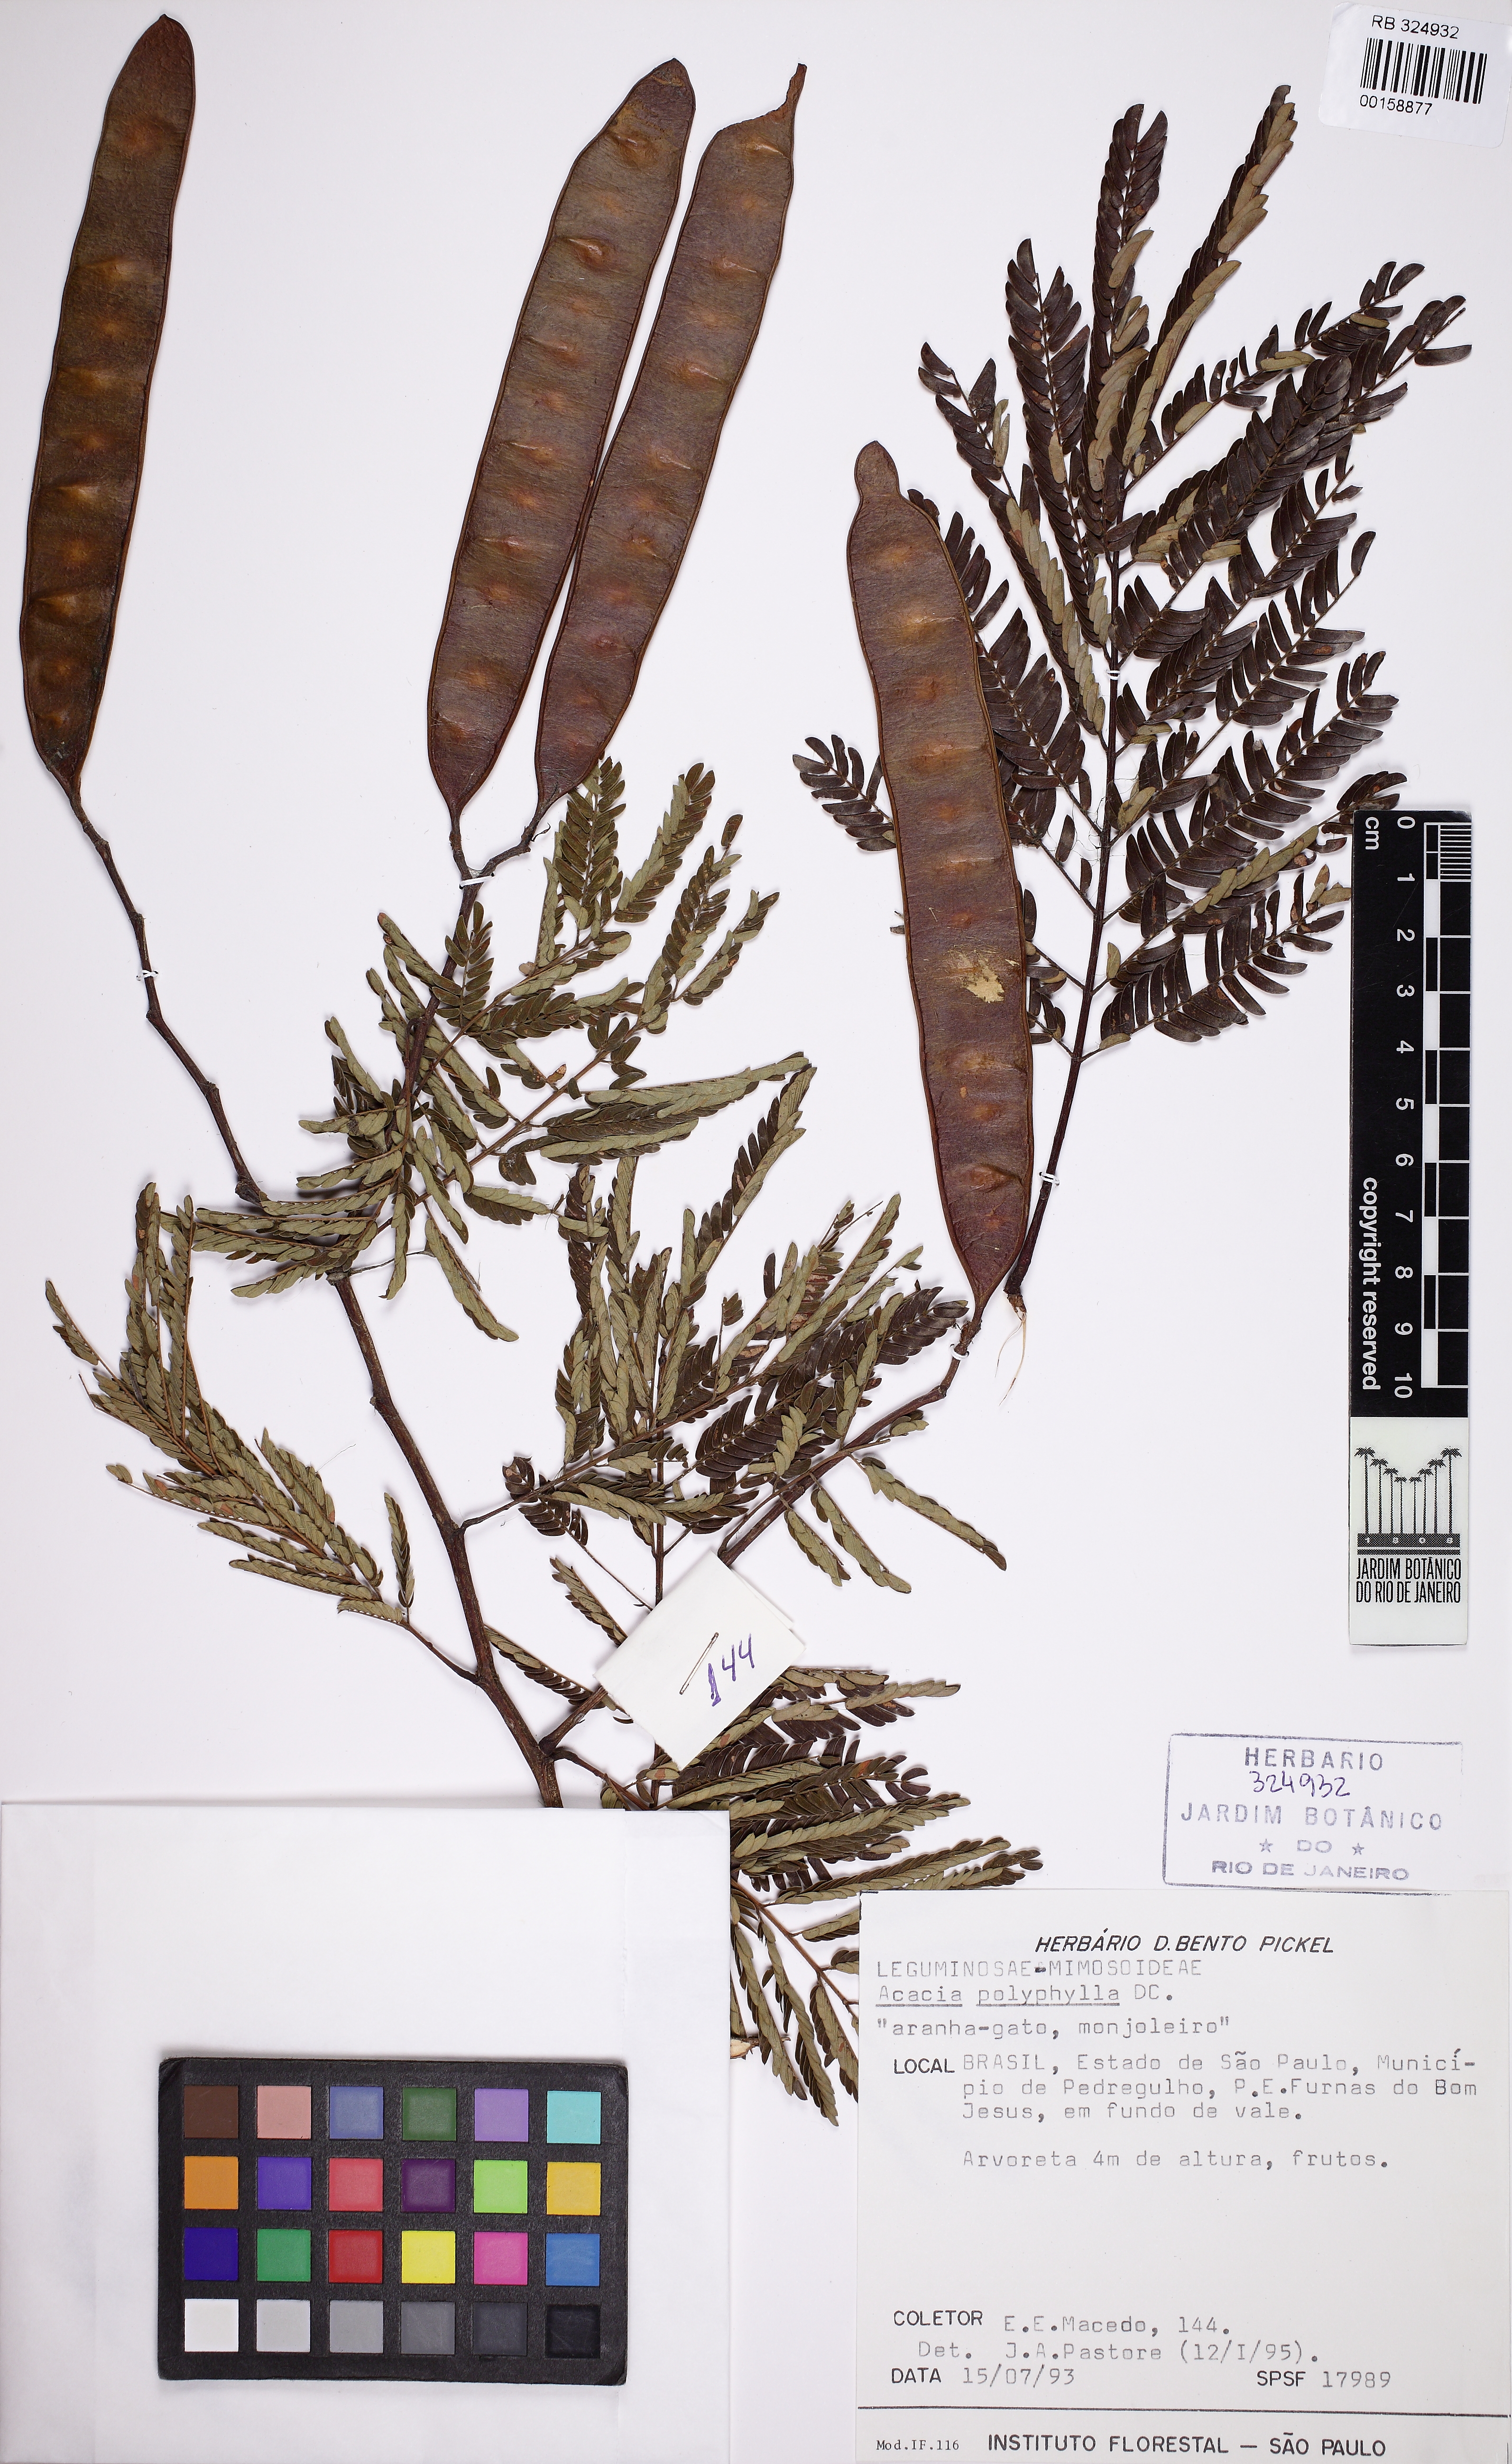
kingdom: Plantae
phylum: Tracheophyta
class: Magnoliopsida
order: Fabales
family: Fabaceae
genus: Senegalia
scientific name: Senegalia polyphylla
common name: White-tamarind
